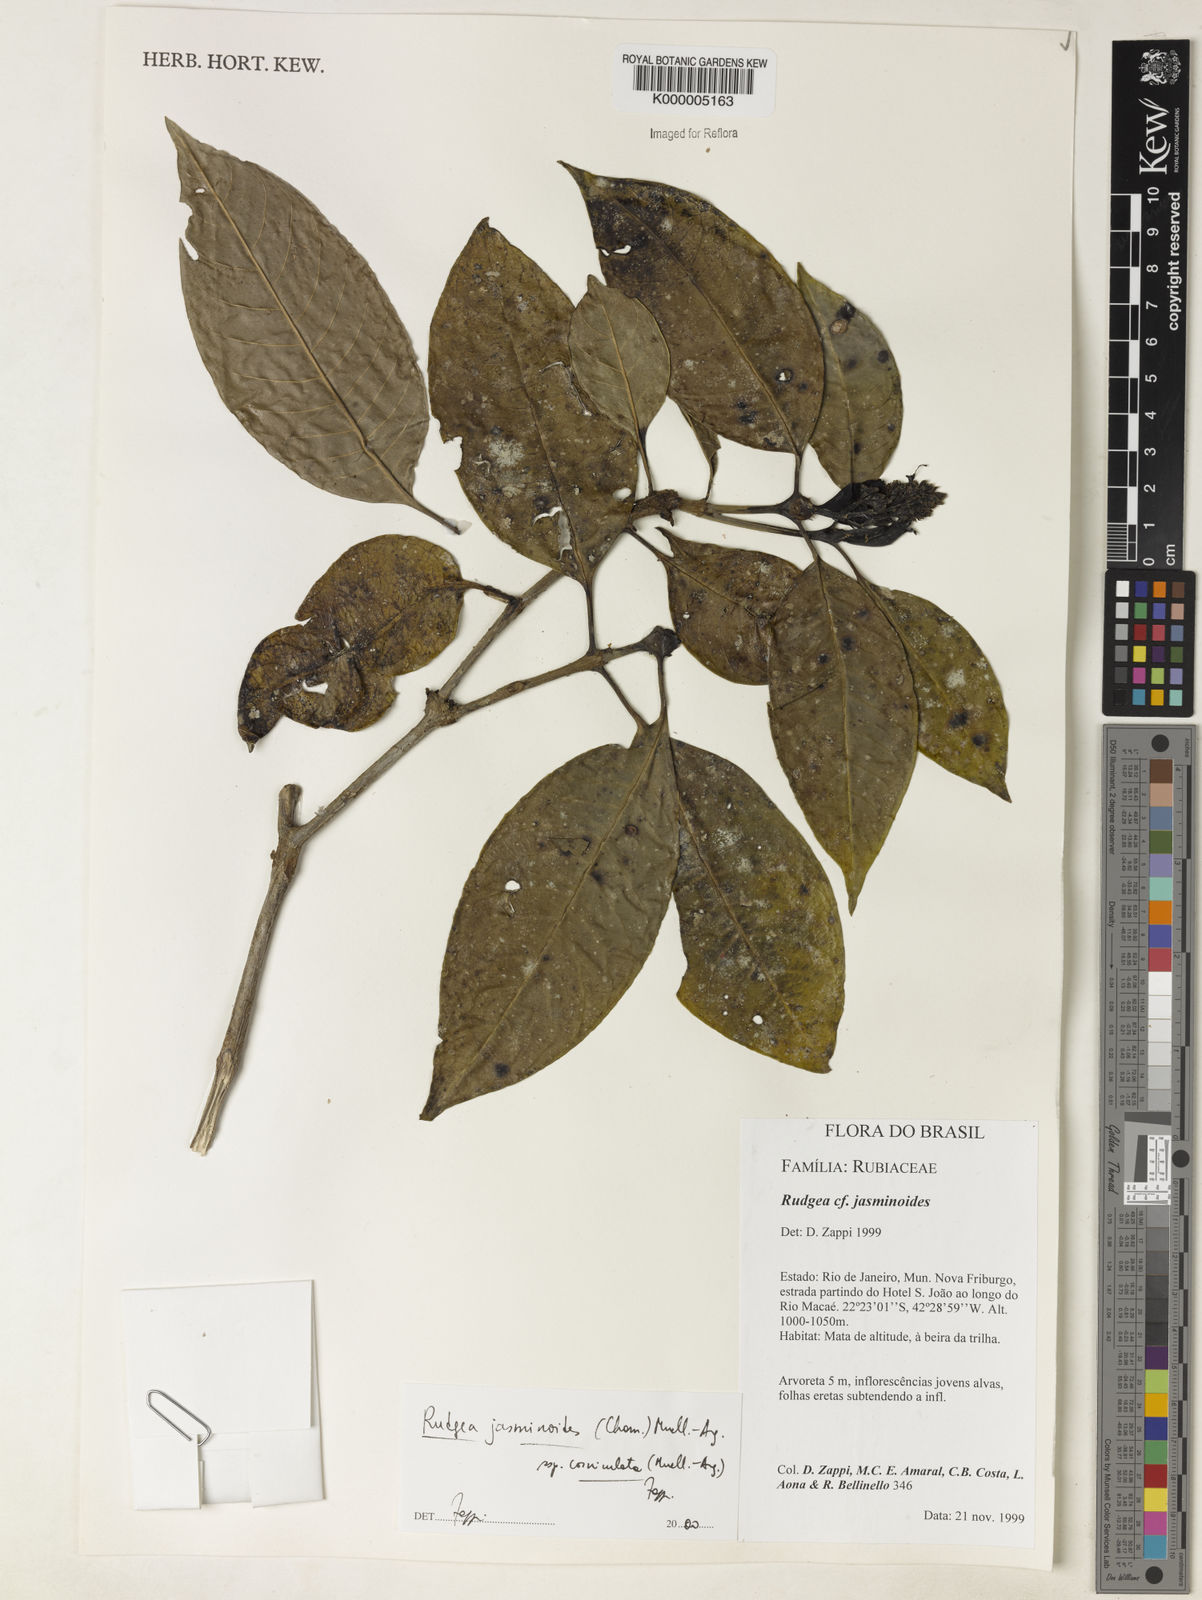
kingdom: Plantae
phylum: Tracheophyta
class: Magnoliopsida
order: Gentianales
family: Rubiaceae
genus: Rudgea
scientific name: Rudgea jasminoides
